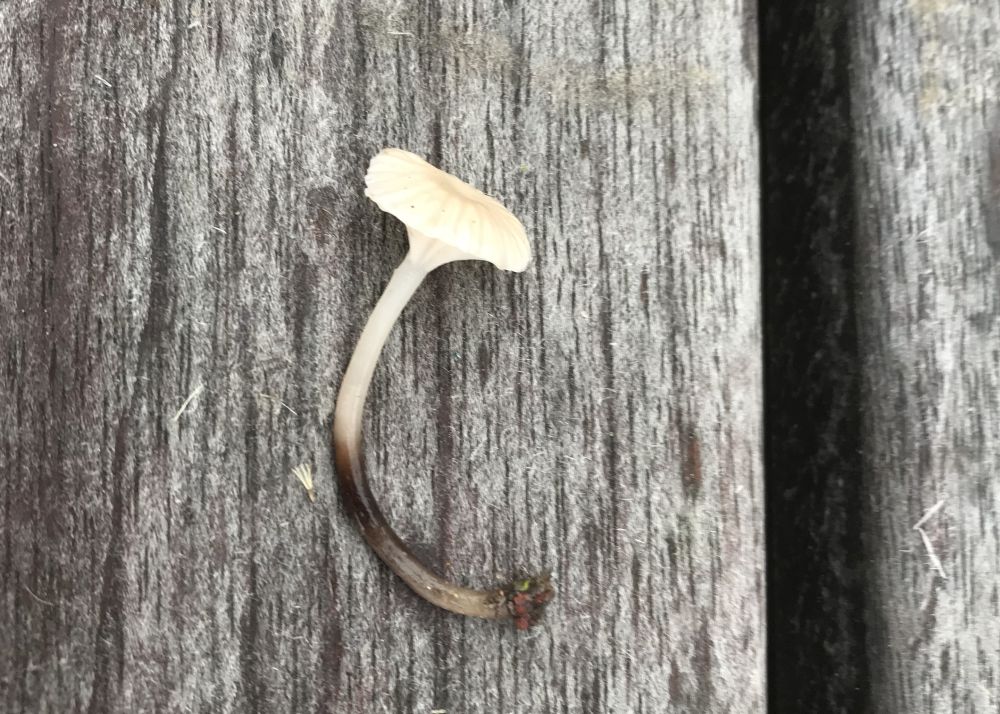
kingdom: Fungi
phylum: Basidiomycota
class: Agaricomycetes
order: Agaricales
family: Mycenaceae
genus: Mycena
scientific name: Mycena belliae
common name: tagrørs-huesvamp
